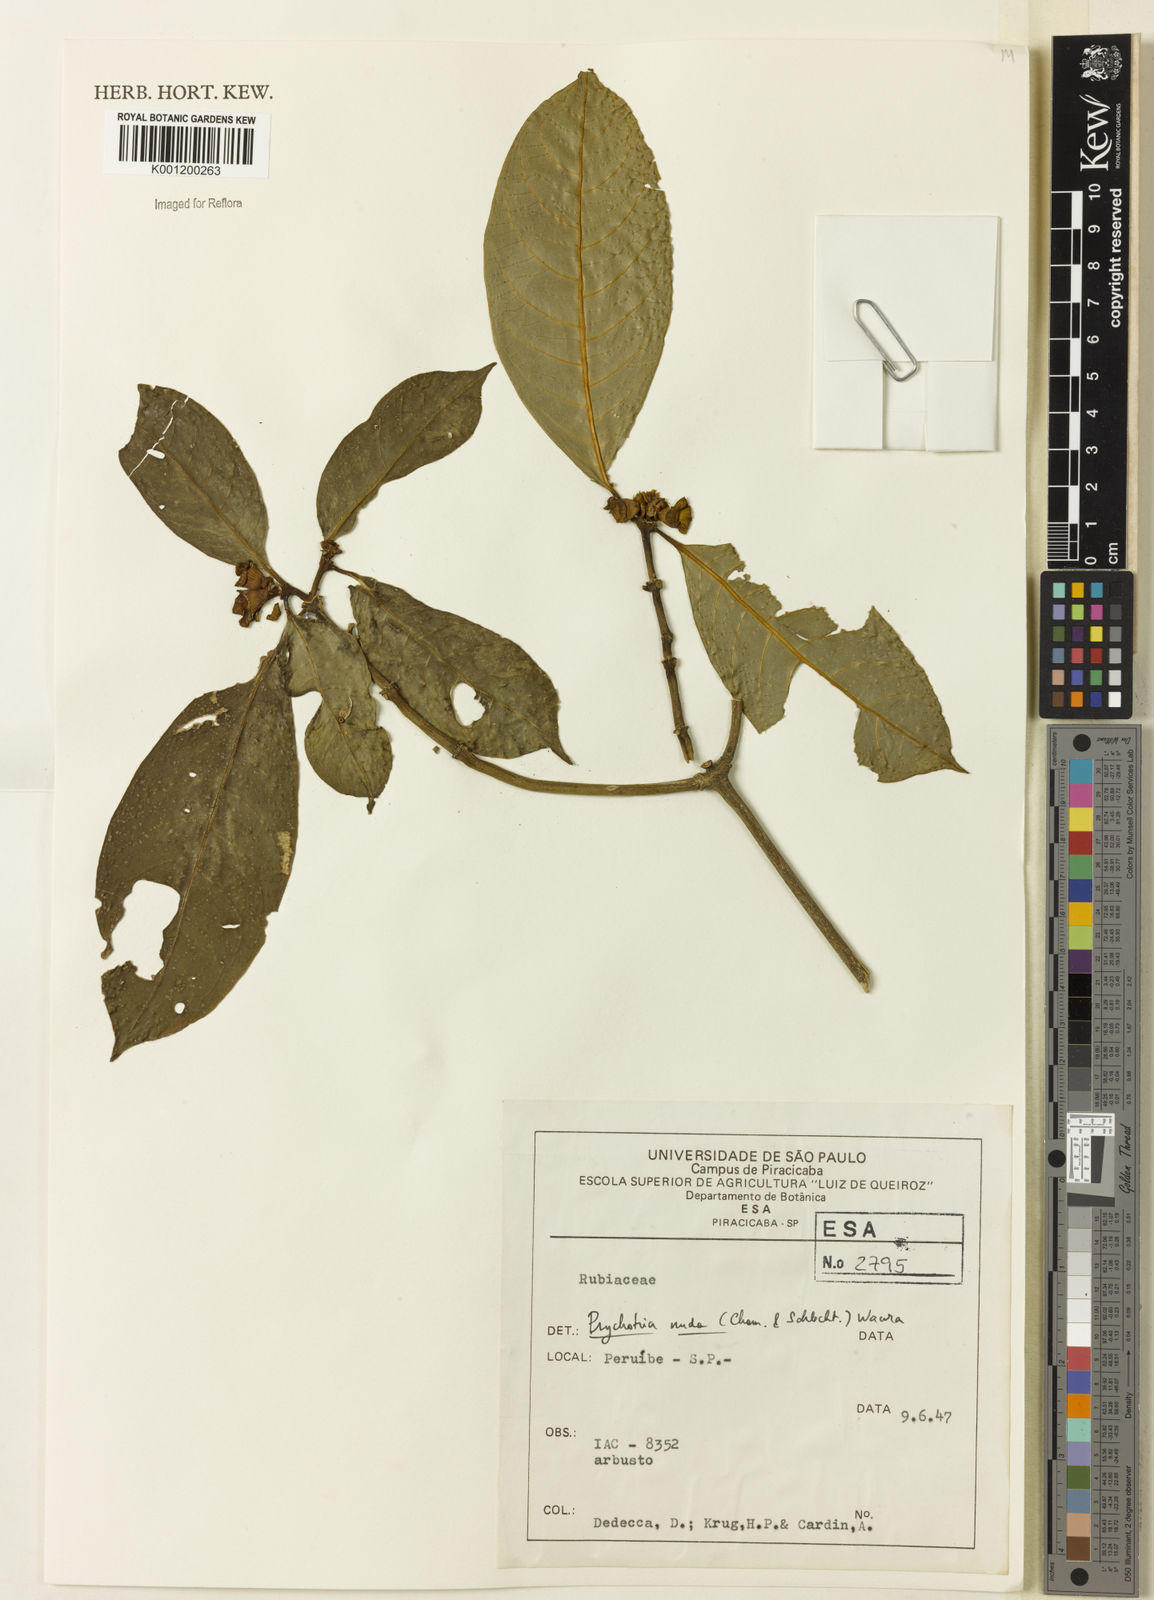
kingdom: Plantae
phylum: Tracheophyta
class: Magnoliopsida
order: Gentianales
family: Rubiaceae
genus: Psychotria
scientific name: Psychotria nuda
